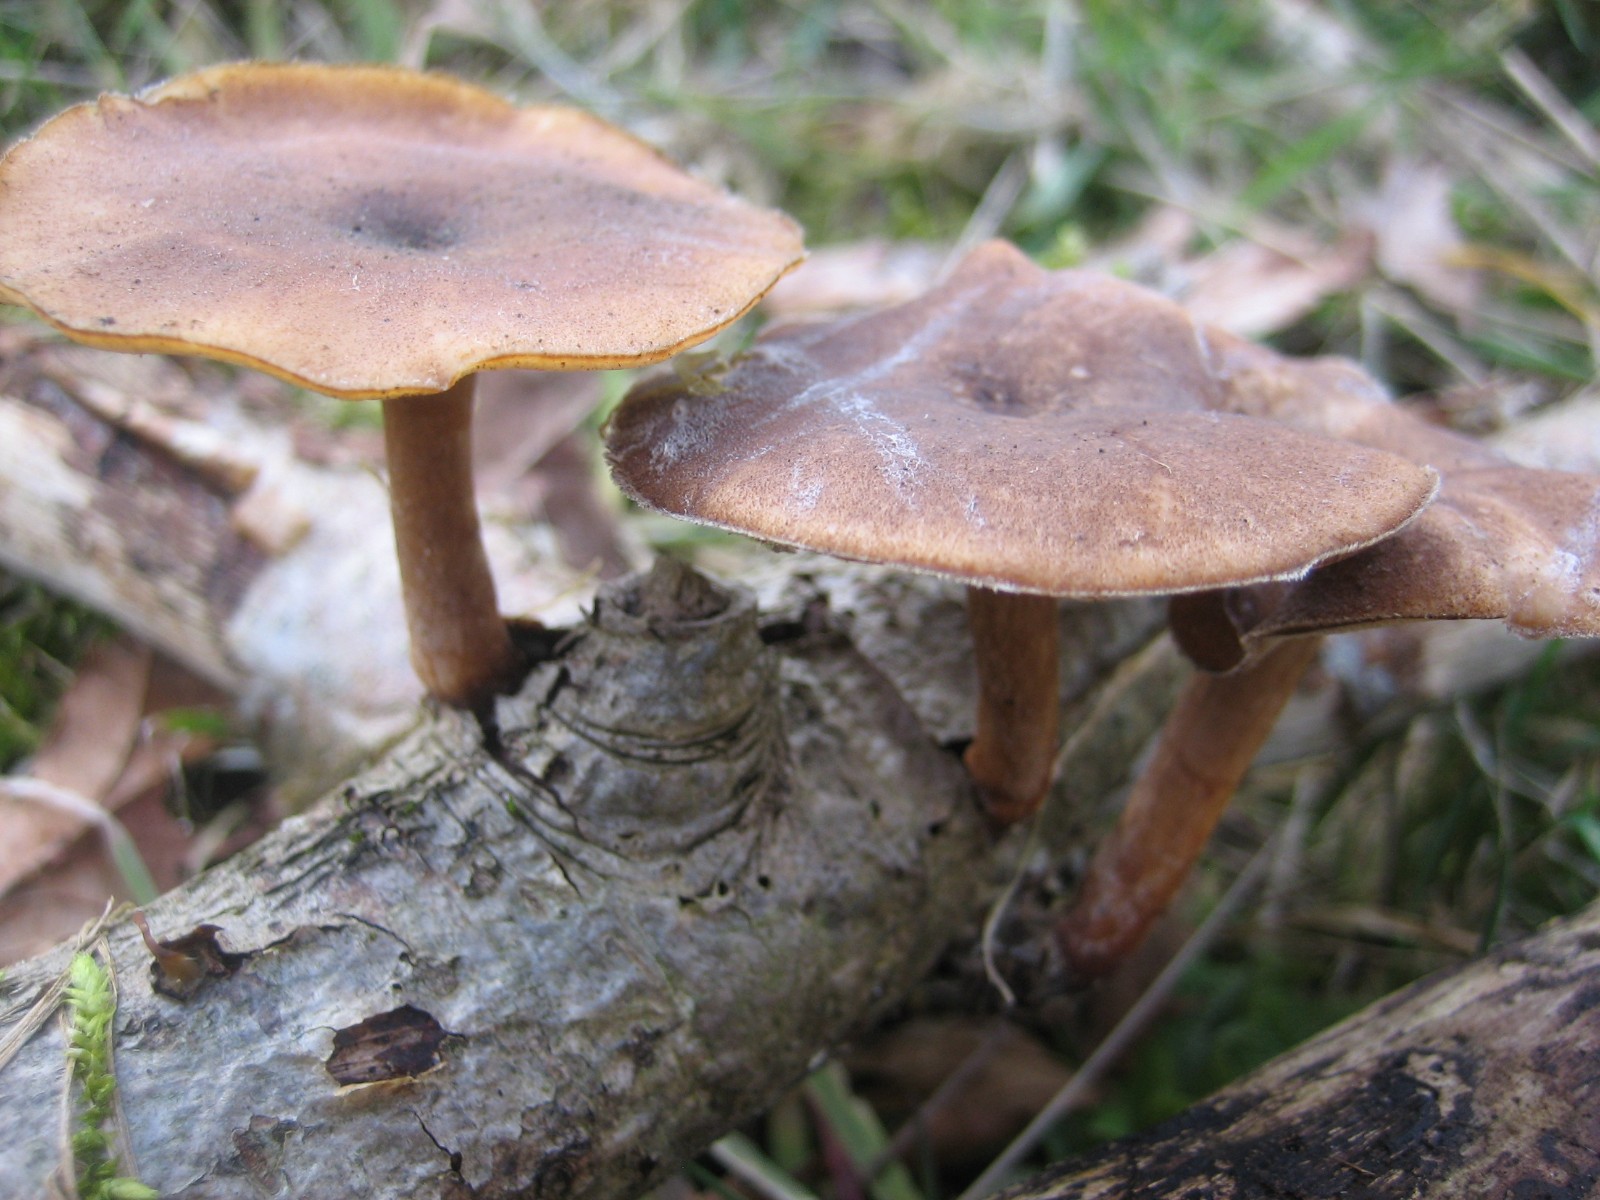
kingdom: Fungi
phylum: Basidiomycota
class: Agaricomycetes
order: Polyporales
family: Polyporaceae
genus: Lentinus
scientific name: Lentinus brumalis
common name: vinter-stilkporesvamp
